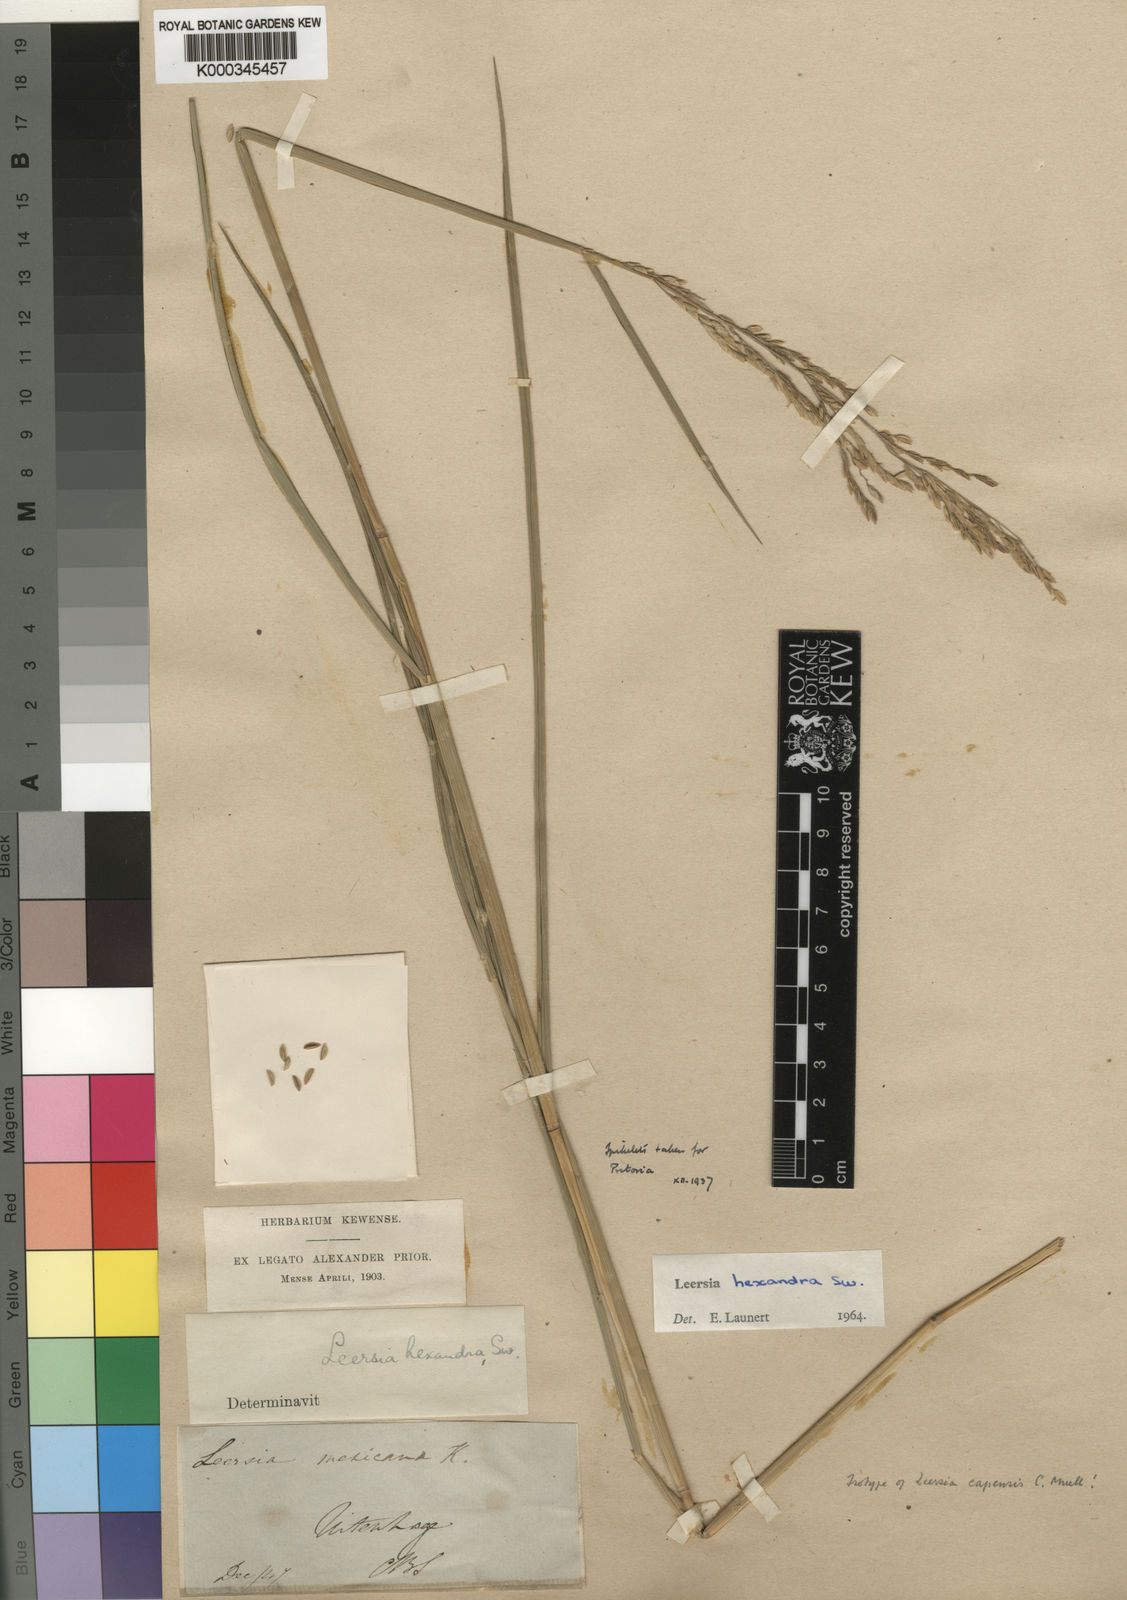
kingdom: Plantae
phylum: Tracheophyta
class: Liliopsida
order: Poales
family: Poaceae
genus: Leersia
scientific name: Leersia hexandra
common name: Southern cut grass
